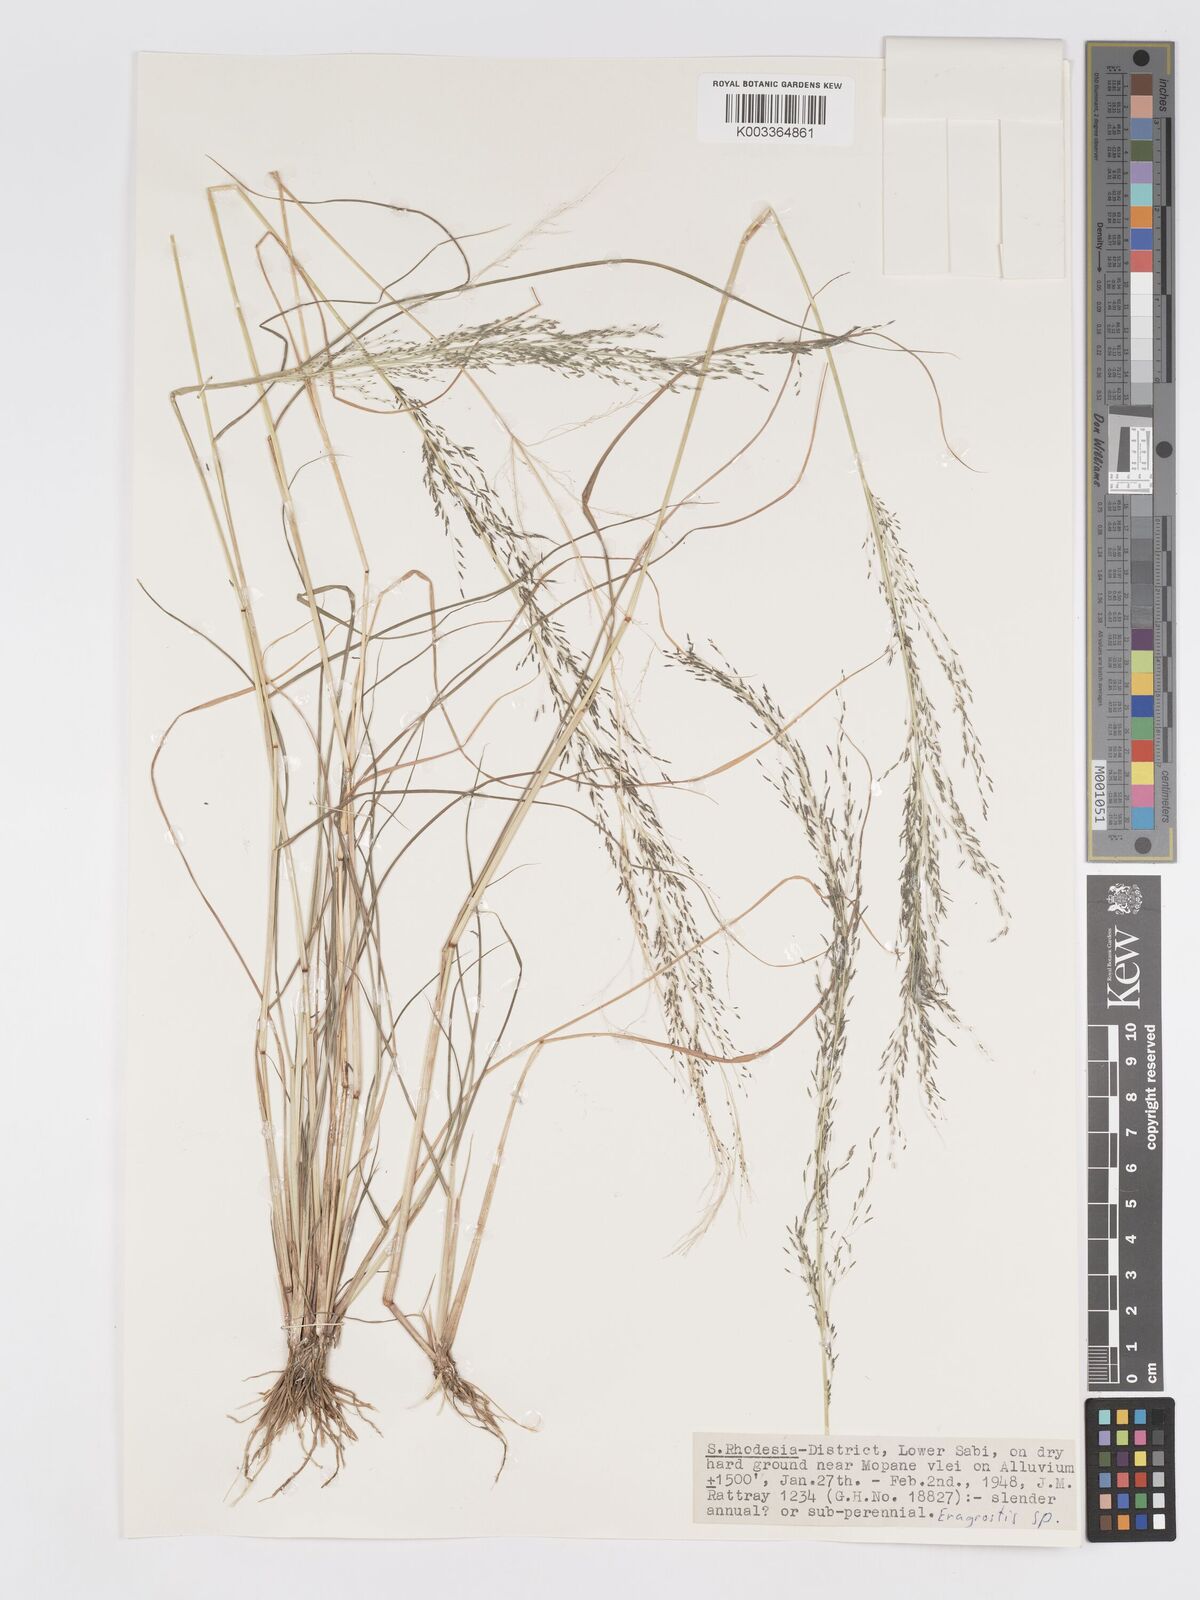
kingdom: Plantae
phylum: Tracheophyta
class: Liliopsida
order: Poales
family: Poaceae
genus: Eragrostis
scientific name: Eragrostis aethiopica
